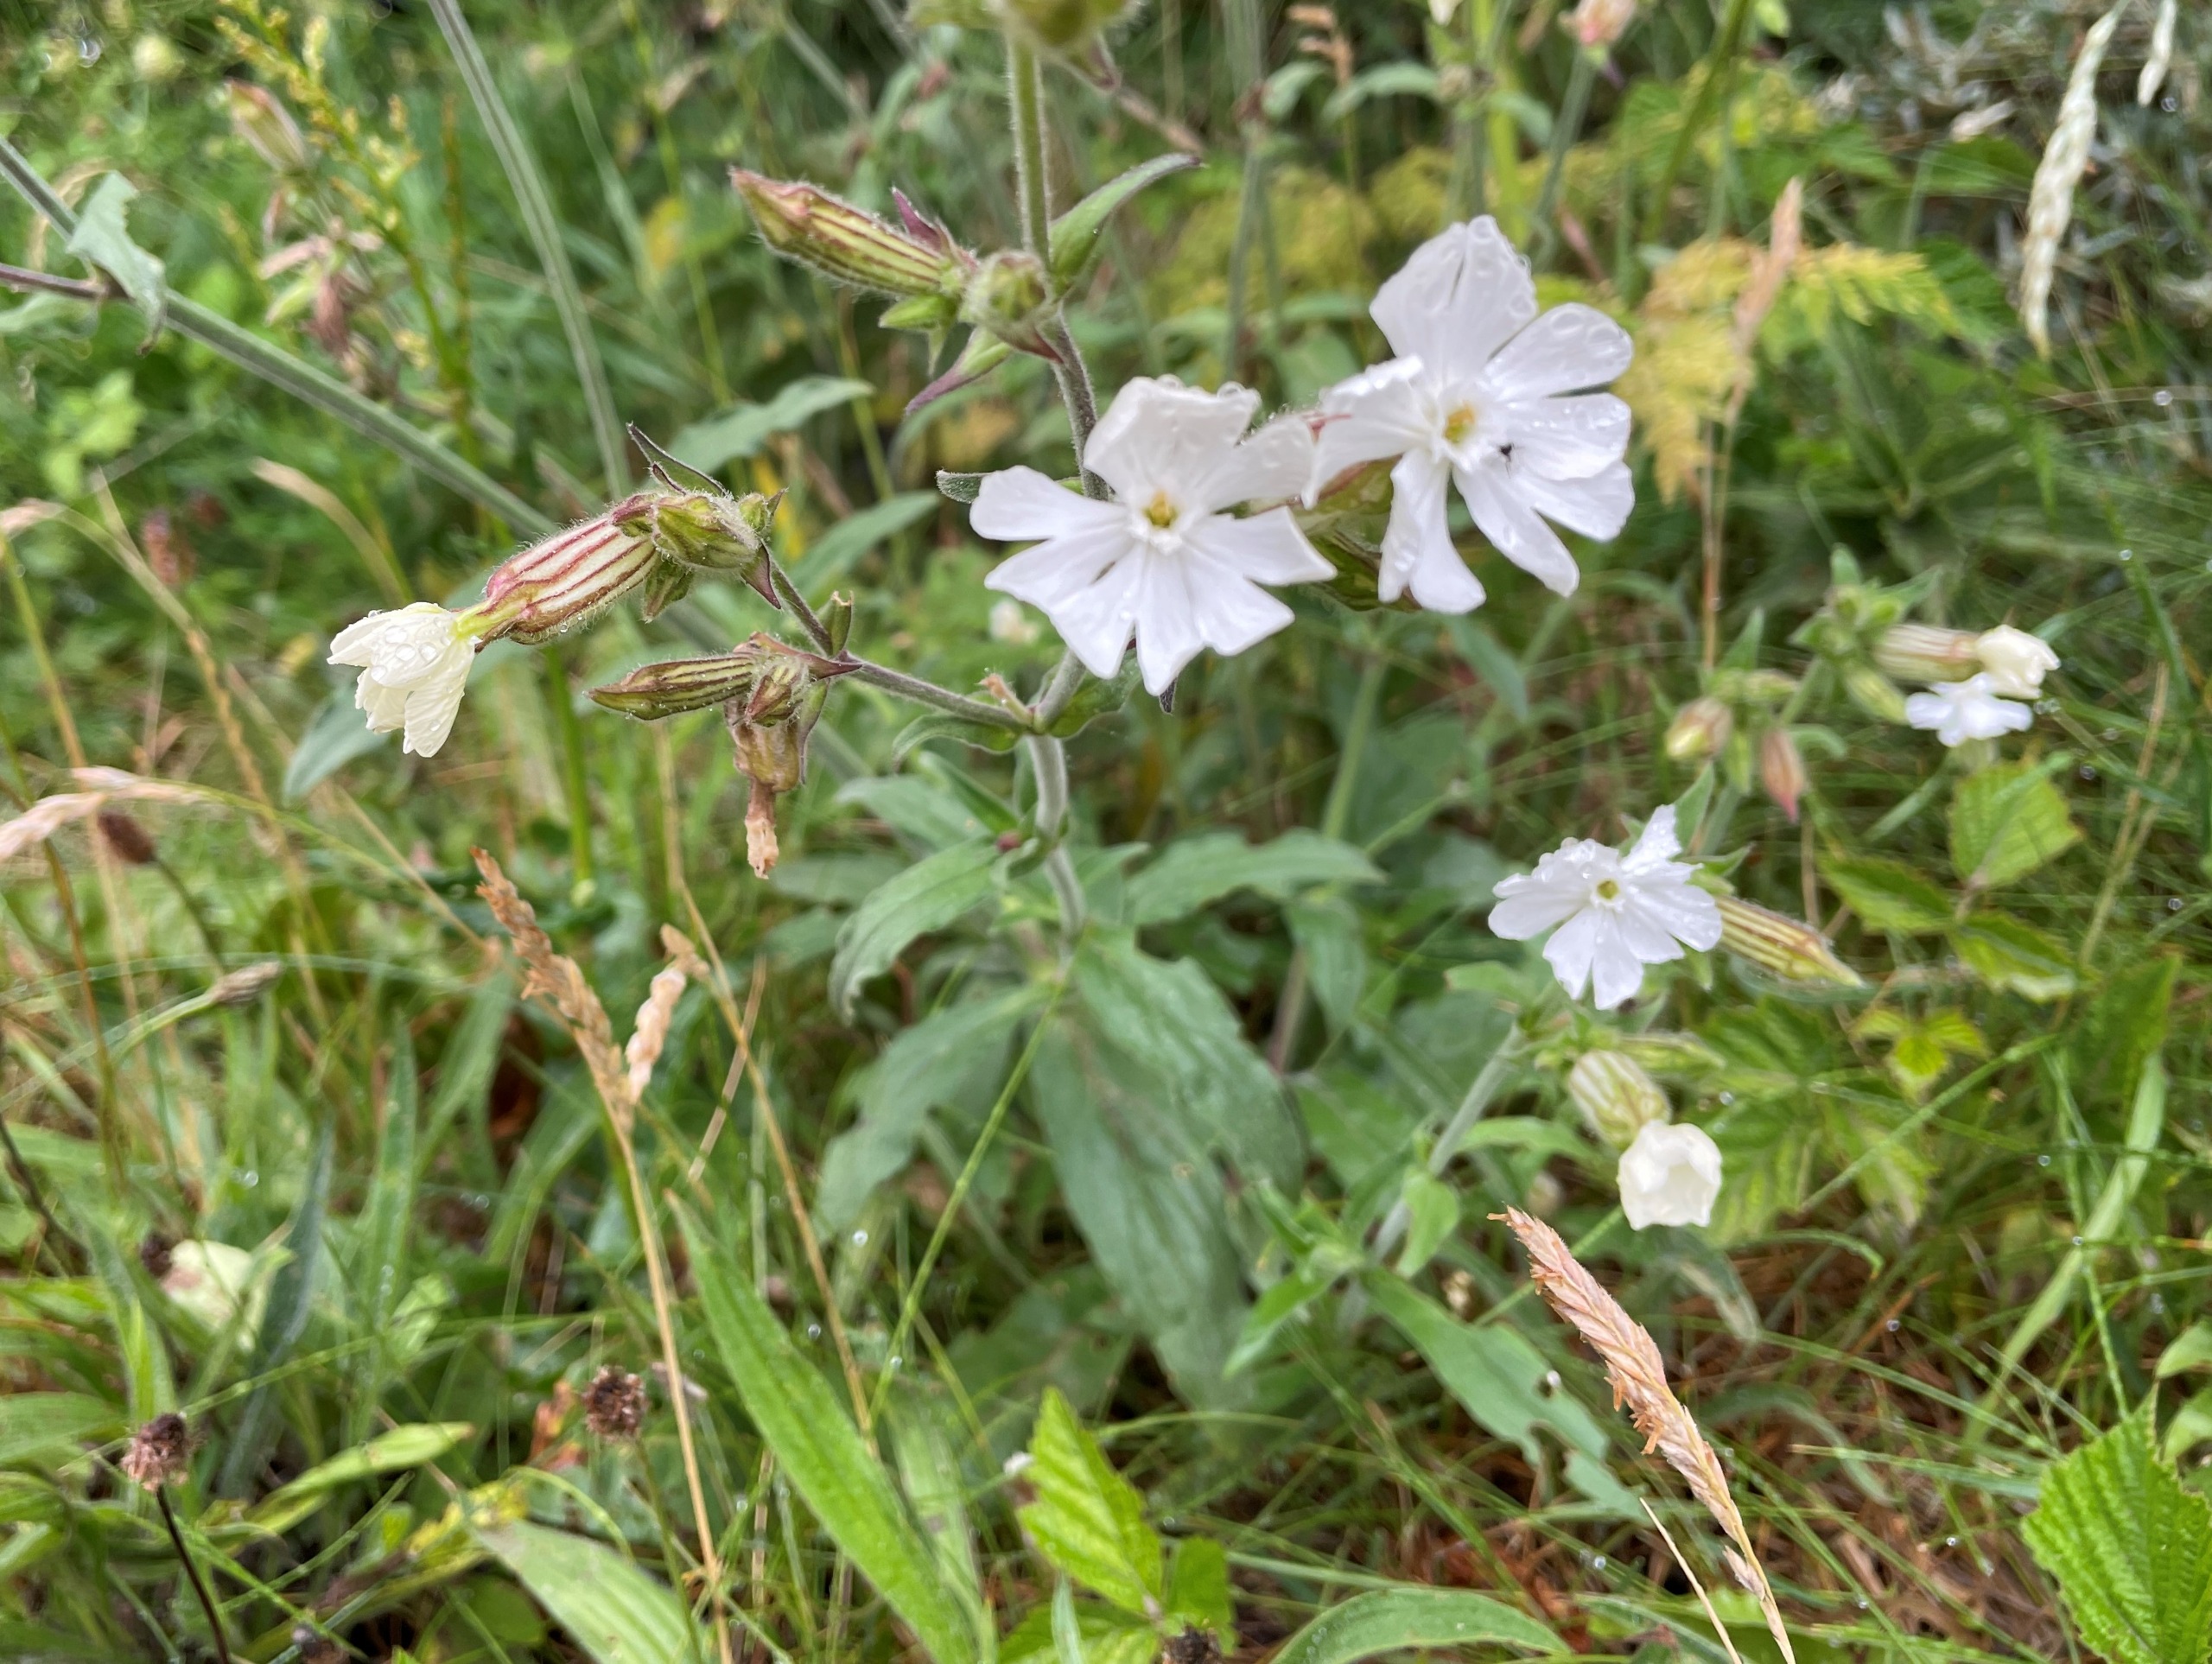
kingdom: Plantae
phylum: Tracheophyta
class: Magnoliopsida
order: Caryophyllales
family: Caryophyllaceae
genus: Silene
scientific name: Silene latifolia
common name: Aftenpragtstjerne
